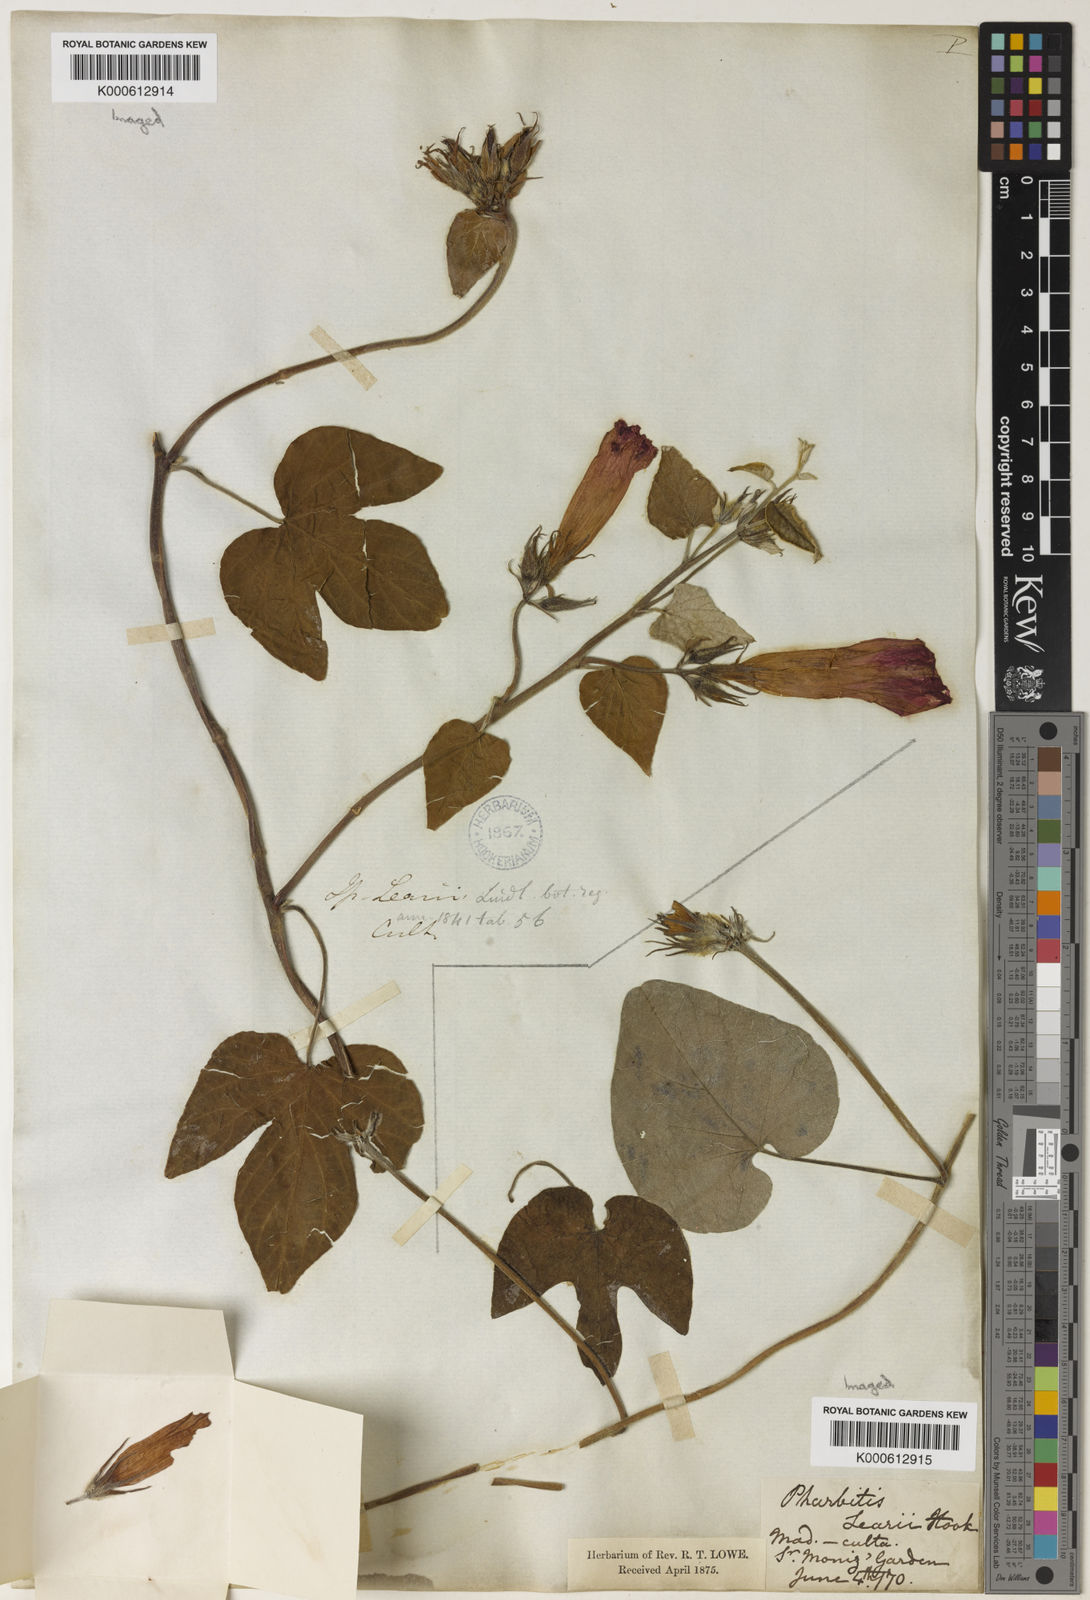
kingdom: Plantae
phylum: Tracheophyta
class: Magnoliopsida
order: Solanales
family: Convolvulaceae
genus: Ipomoea
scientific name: Ipomoea indica
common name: Blue dawnflower
